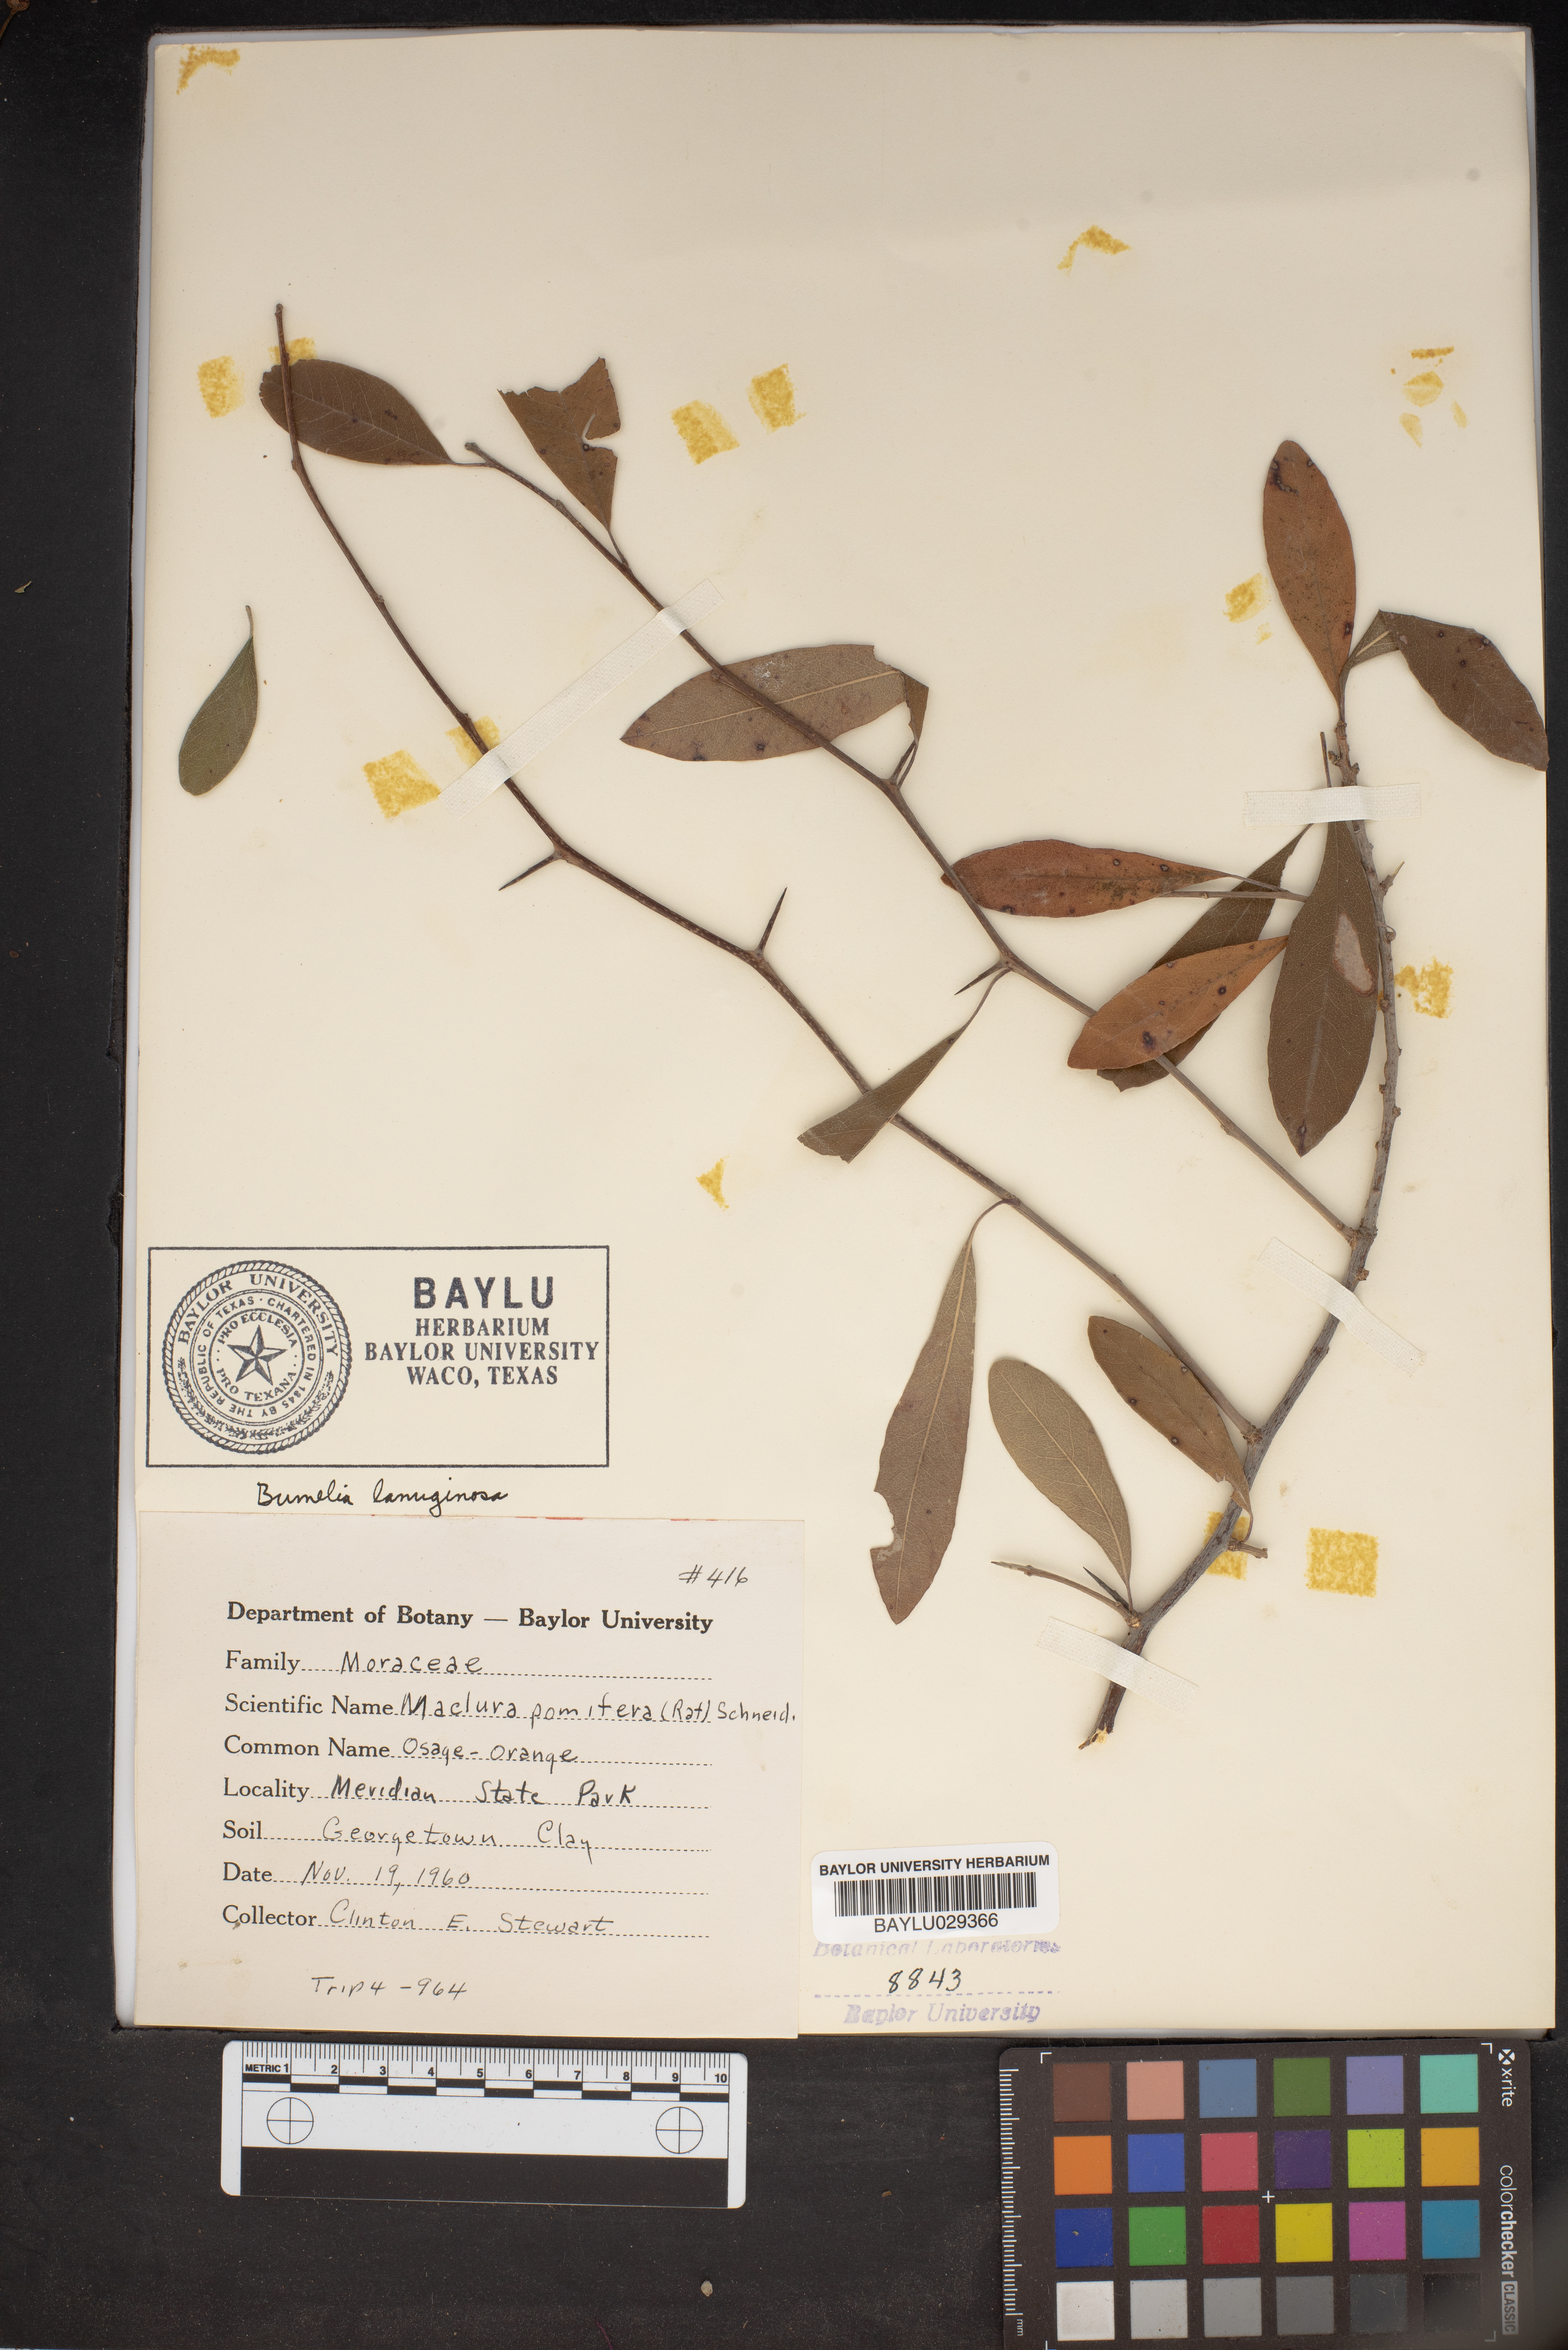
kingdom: Plantae
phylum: Tracheophyta
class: Magnoliopsida
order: Rosales
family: Moraceae
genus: Maclura
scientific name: Maclura pomifera
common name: Osage-orange
